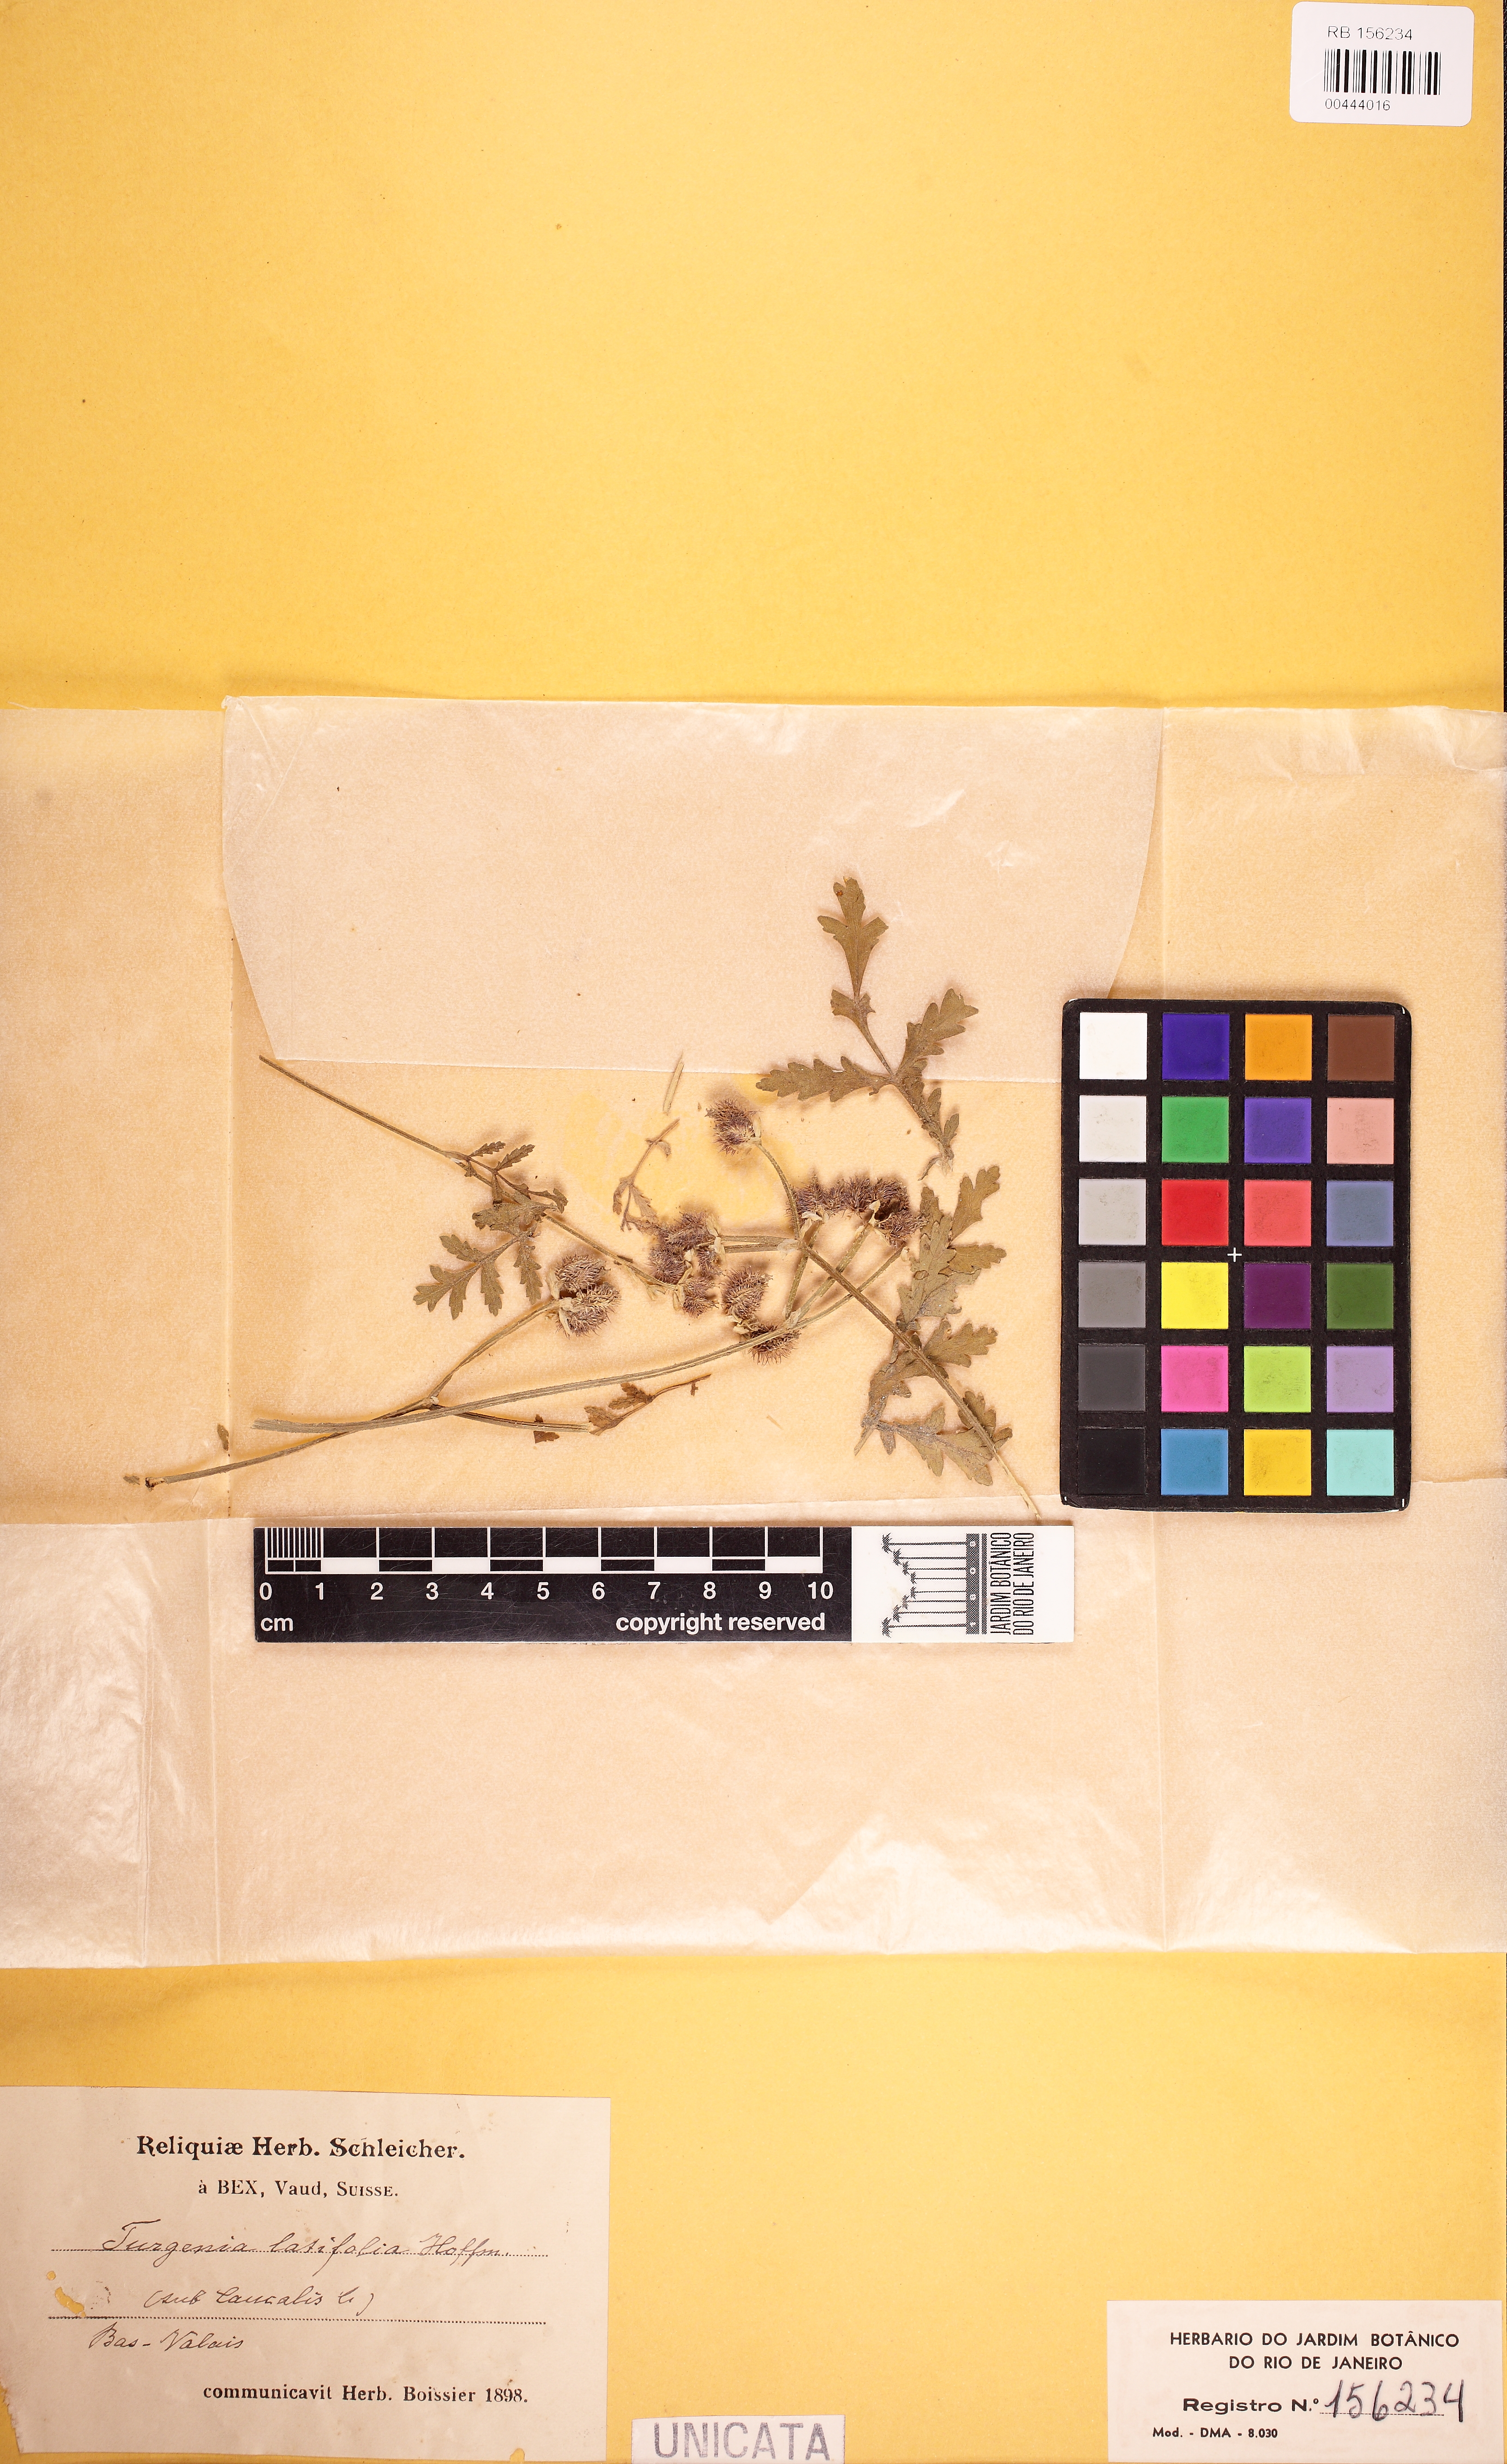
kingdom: Plantae
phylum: Tracheophyta
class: Magnoliopsida
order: Apiales
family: Apiaceae
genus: Turgenia
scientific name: Turgenia latifolia
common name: Greater bur-parsley
